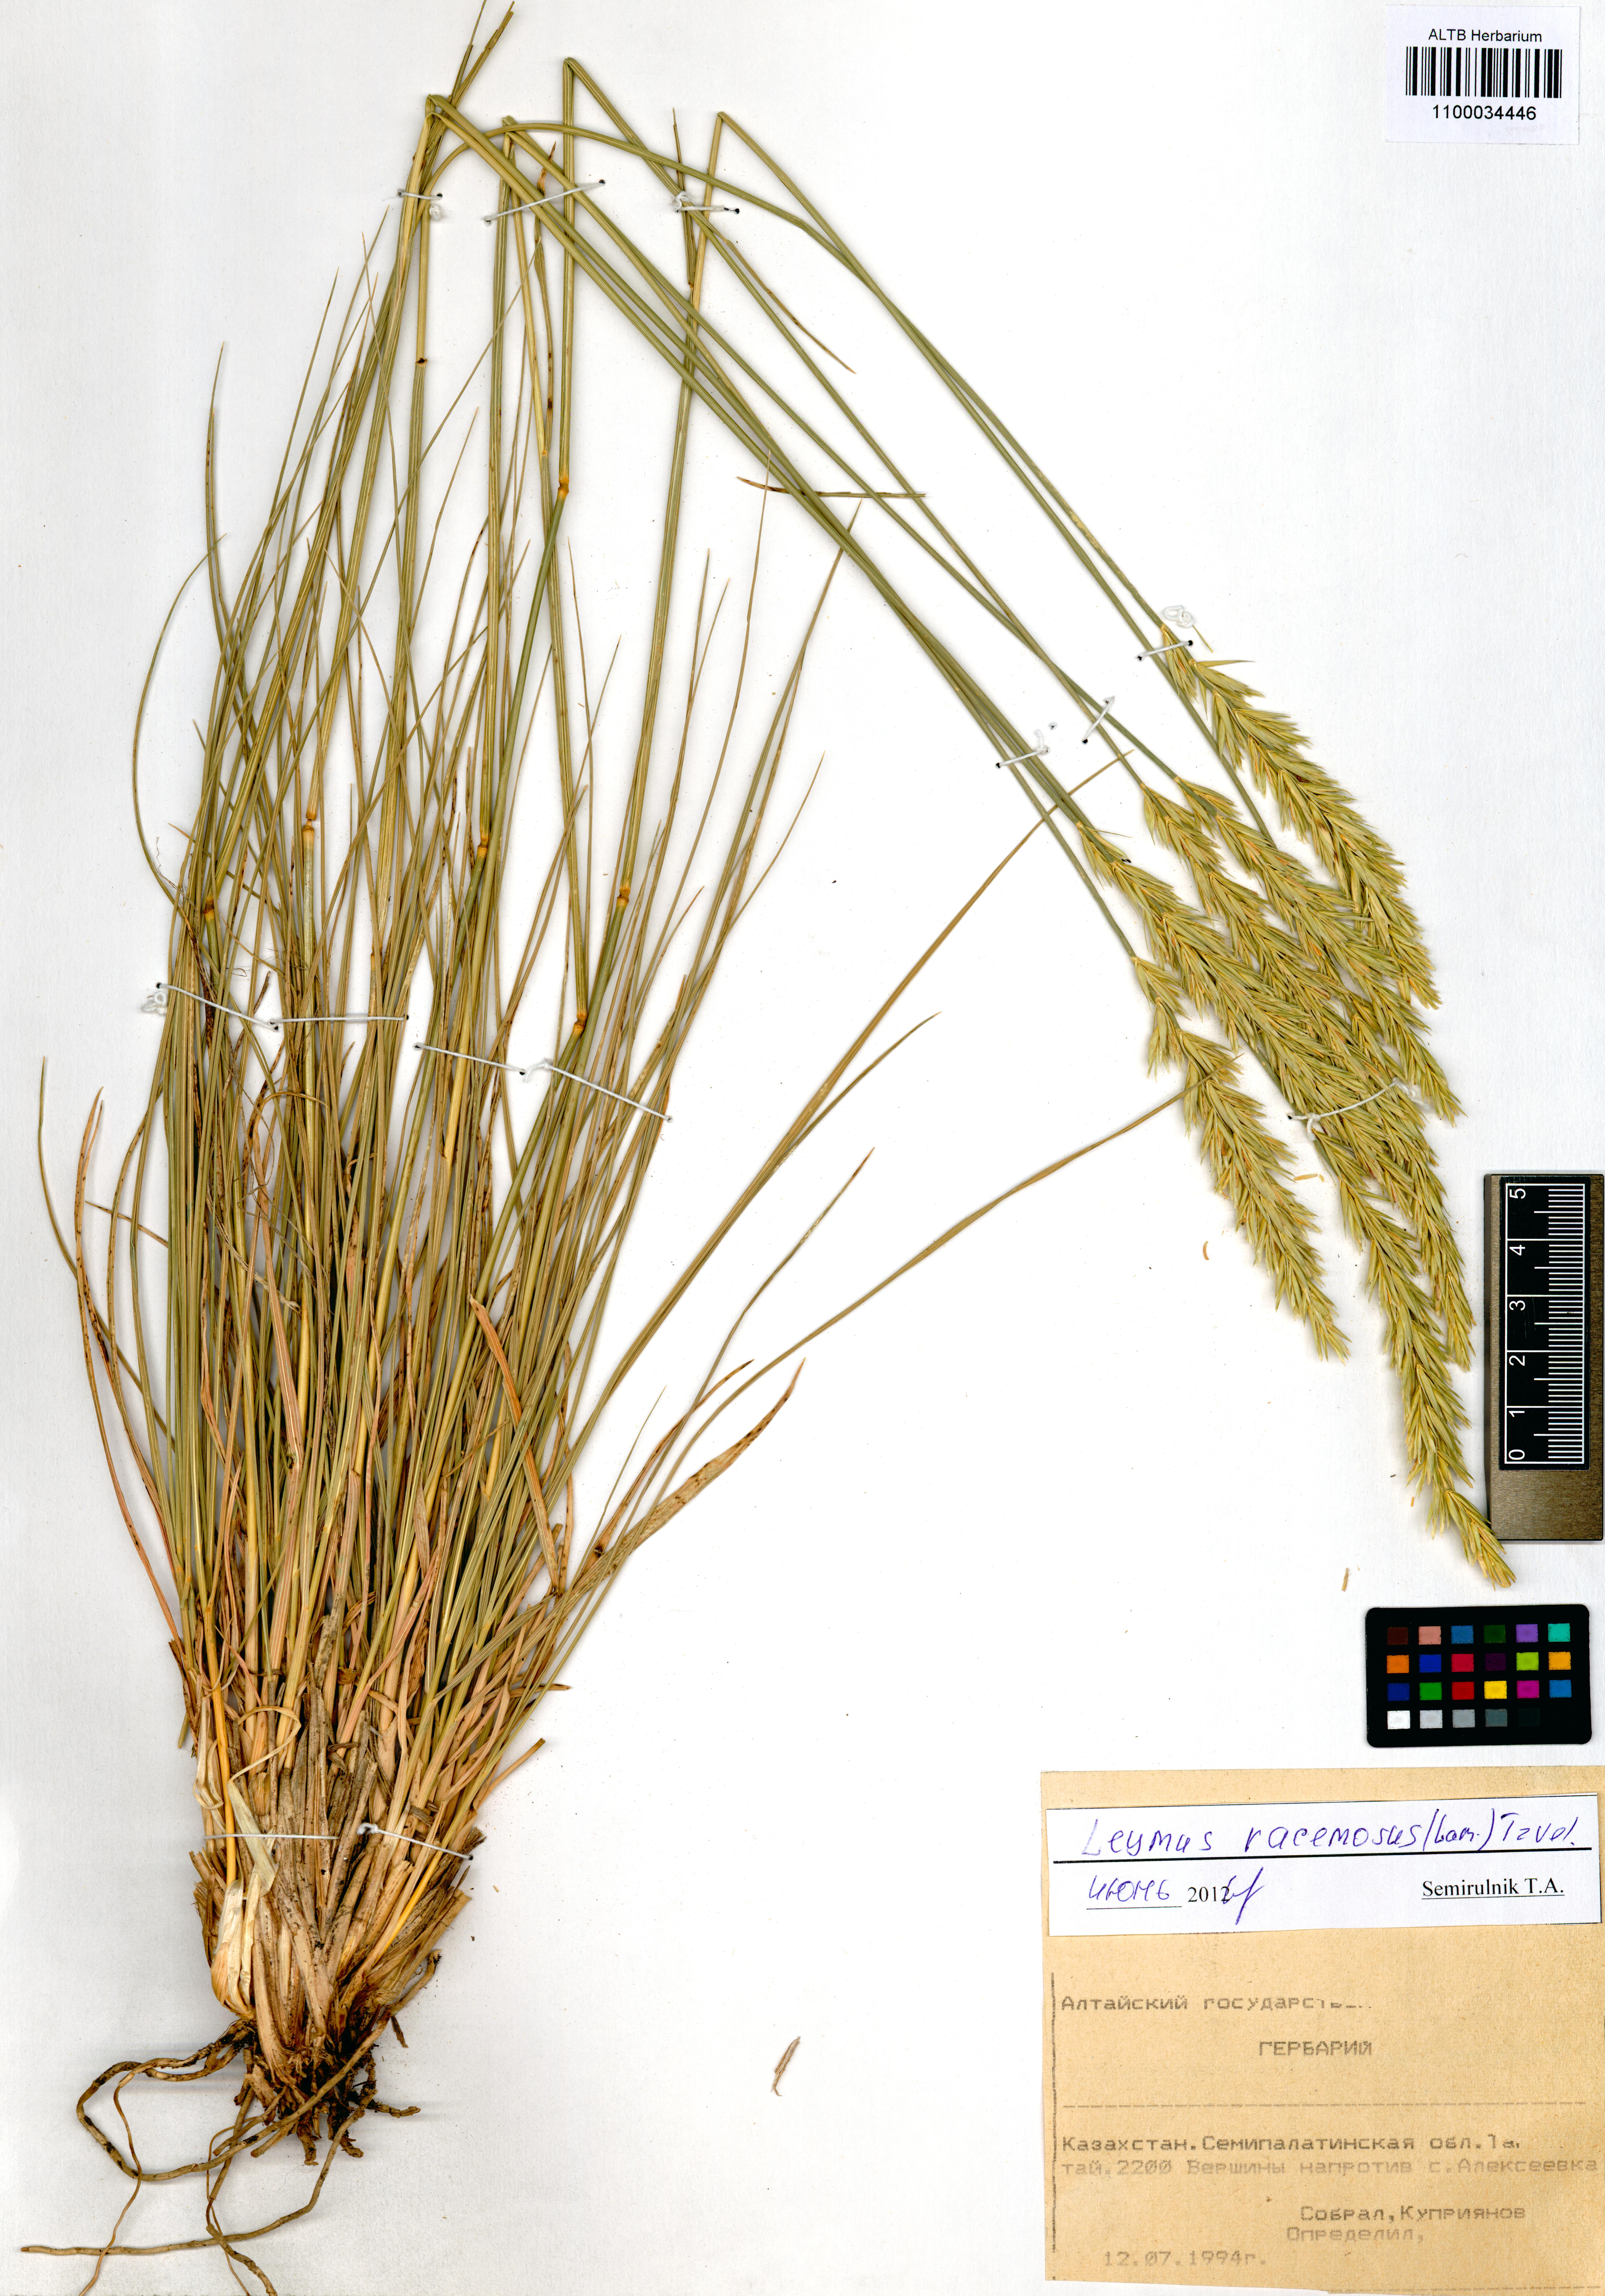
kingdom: Plantae
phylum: Tracheophyta
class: Liliopsida
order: Poales
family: Poaceae
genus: Leymus
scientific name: Leymus racemosus
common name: Mammoth wildrye
